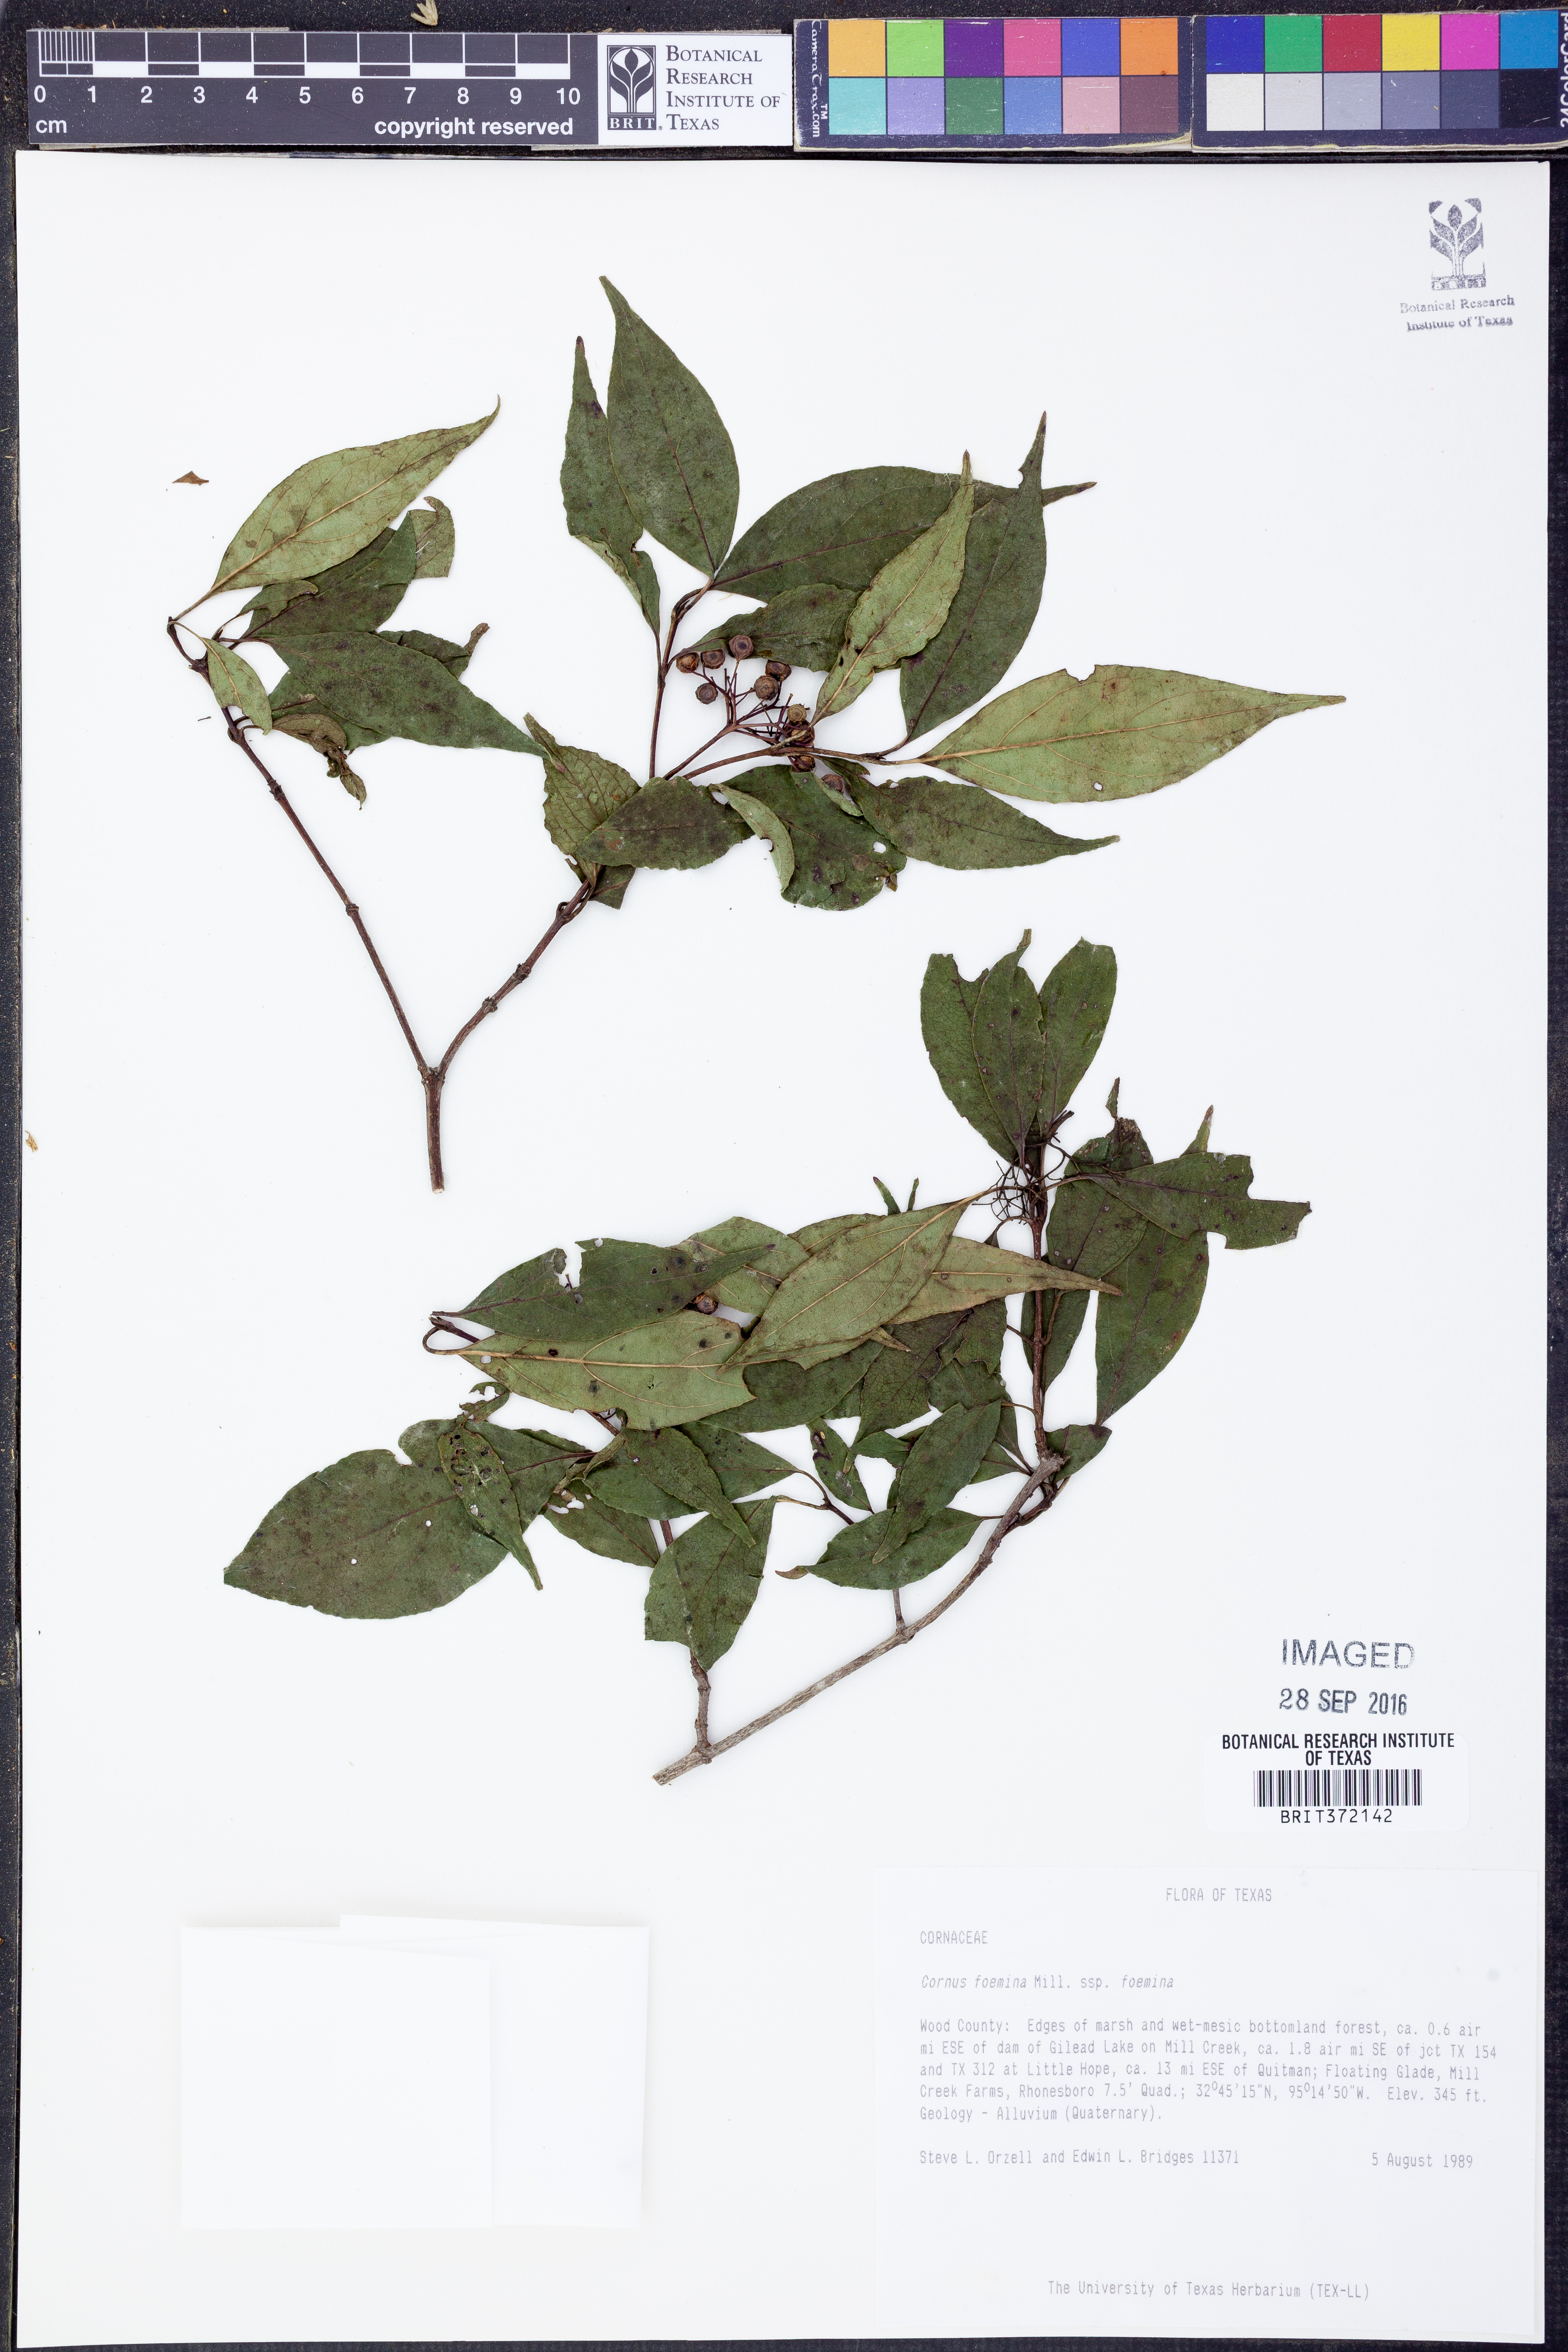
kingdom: Plantae
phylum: Tracheophyta
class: Magnoliopsida
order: Cornales
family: Cornaceae
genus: Cornus
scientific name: Cornus foemina
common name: Swamp dogwood
